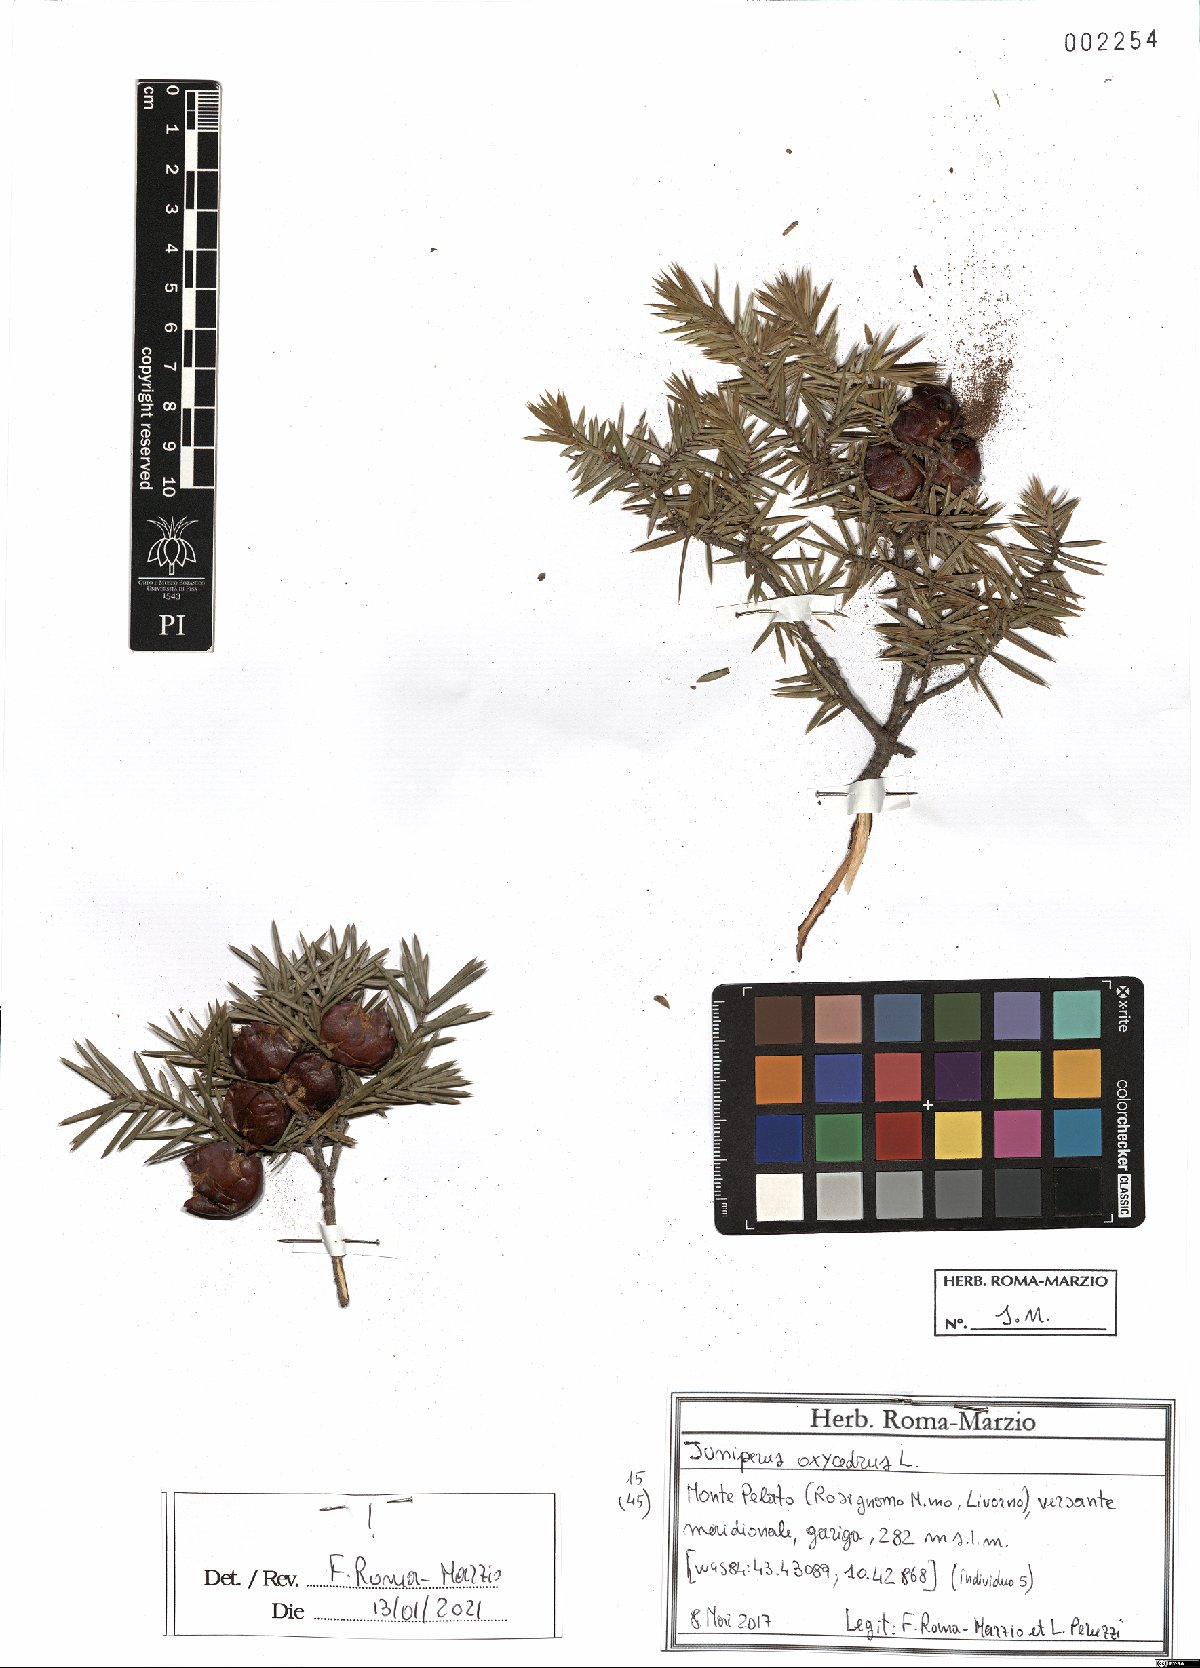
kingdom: Plantae
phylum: Tracheophyta
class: Pinopsida
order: Pinales
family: Cupressaceae
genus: Juniperus
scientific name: Juniperus oxycedrus
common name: Prickly juniper
